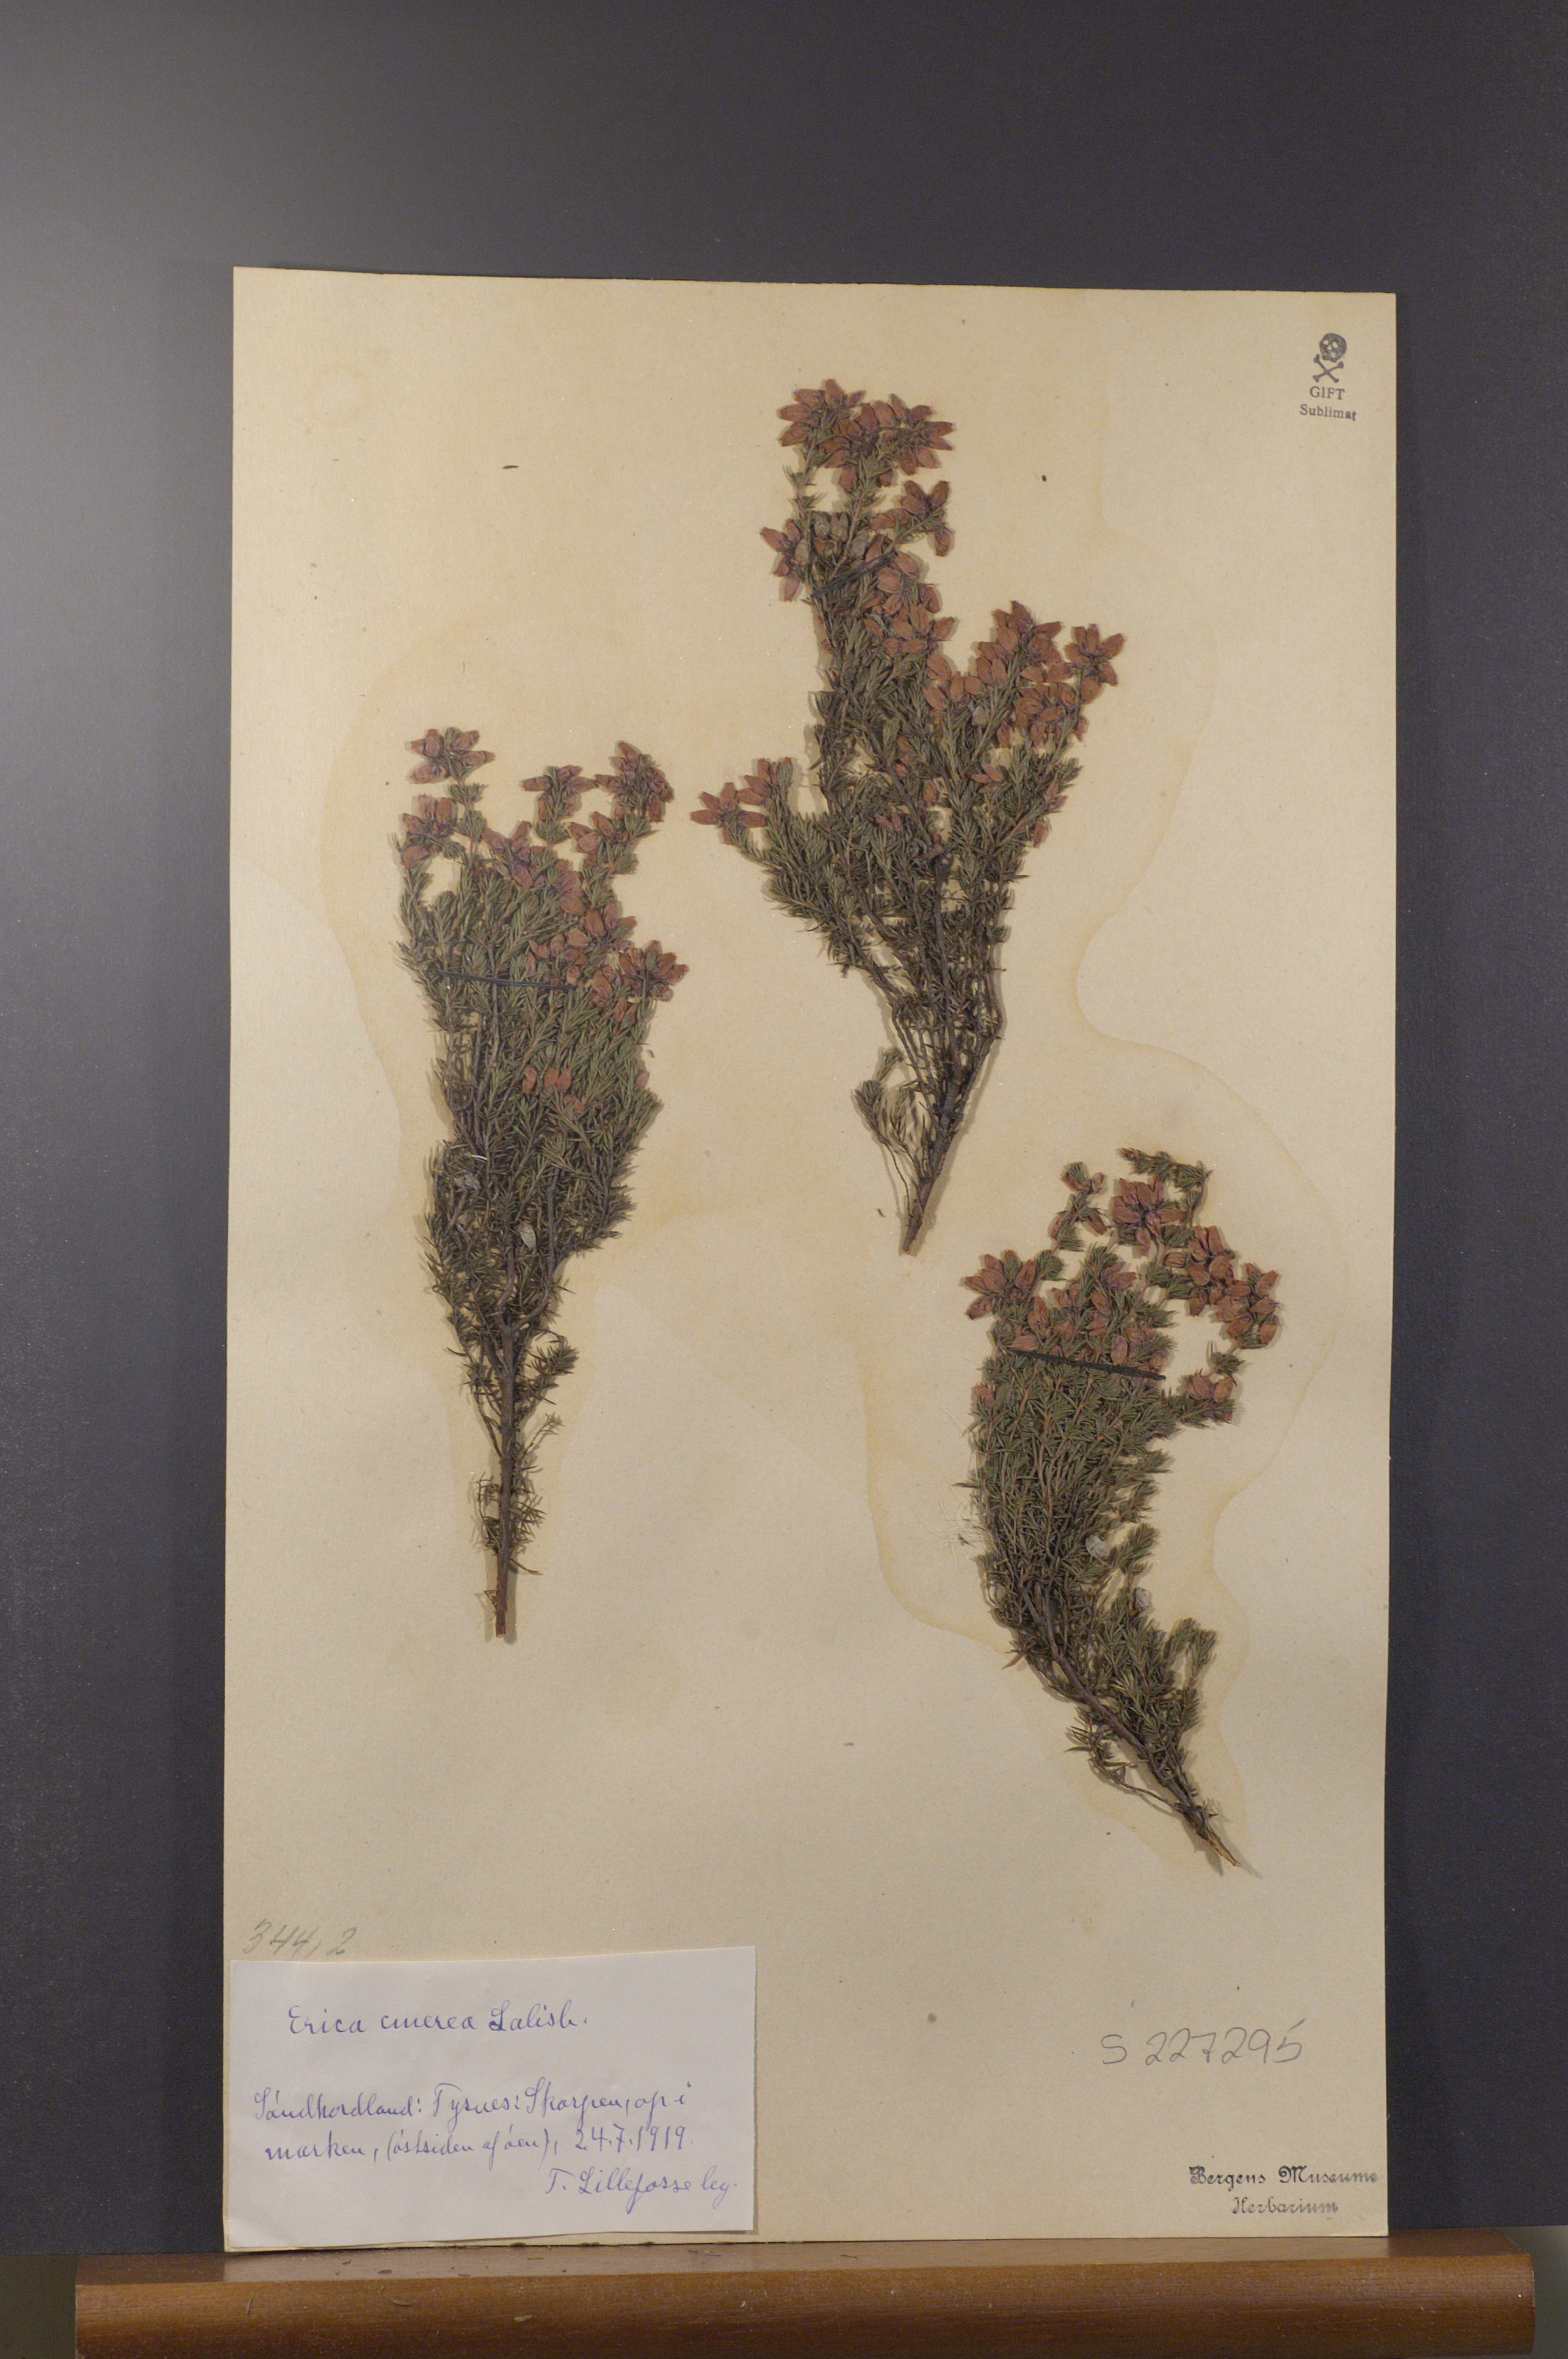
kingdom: Plantae
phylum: Tracheophyta
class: Magnoliopsida
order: Ericales
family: Ericaceae
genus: Erica
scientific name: Erica cinerea
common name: Bell heather
